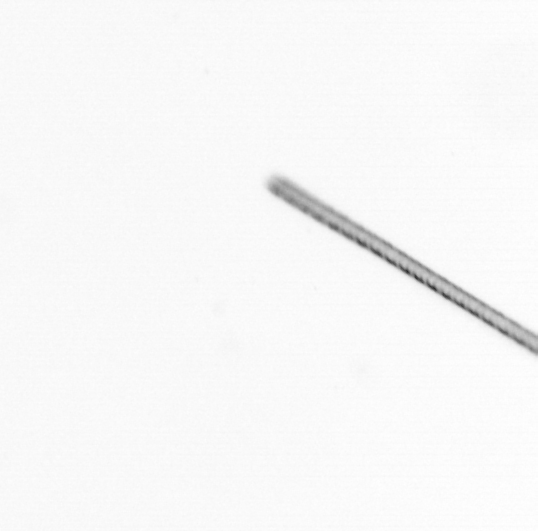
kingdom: Chromista
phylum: Ochrophyta
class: Bacillariophyceae
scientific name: Bacillariophyceae
